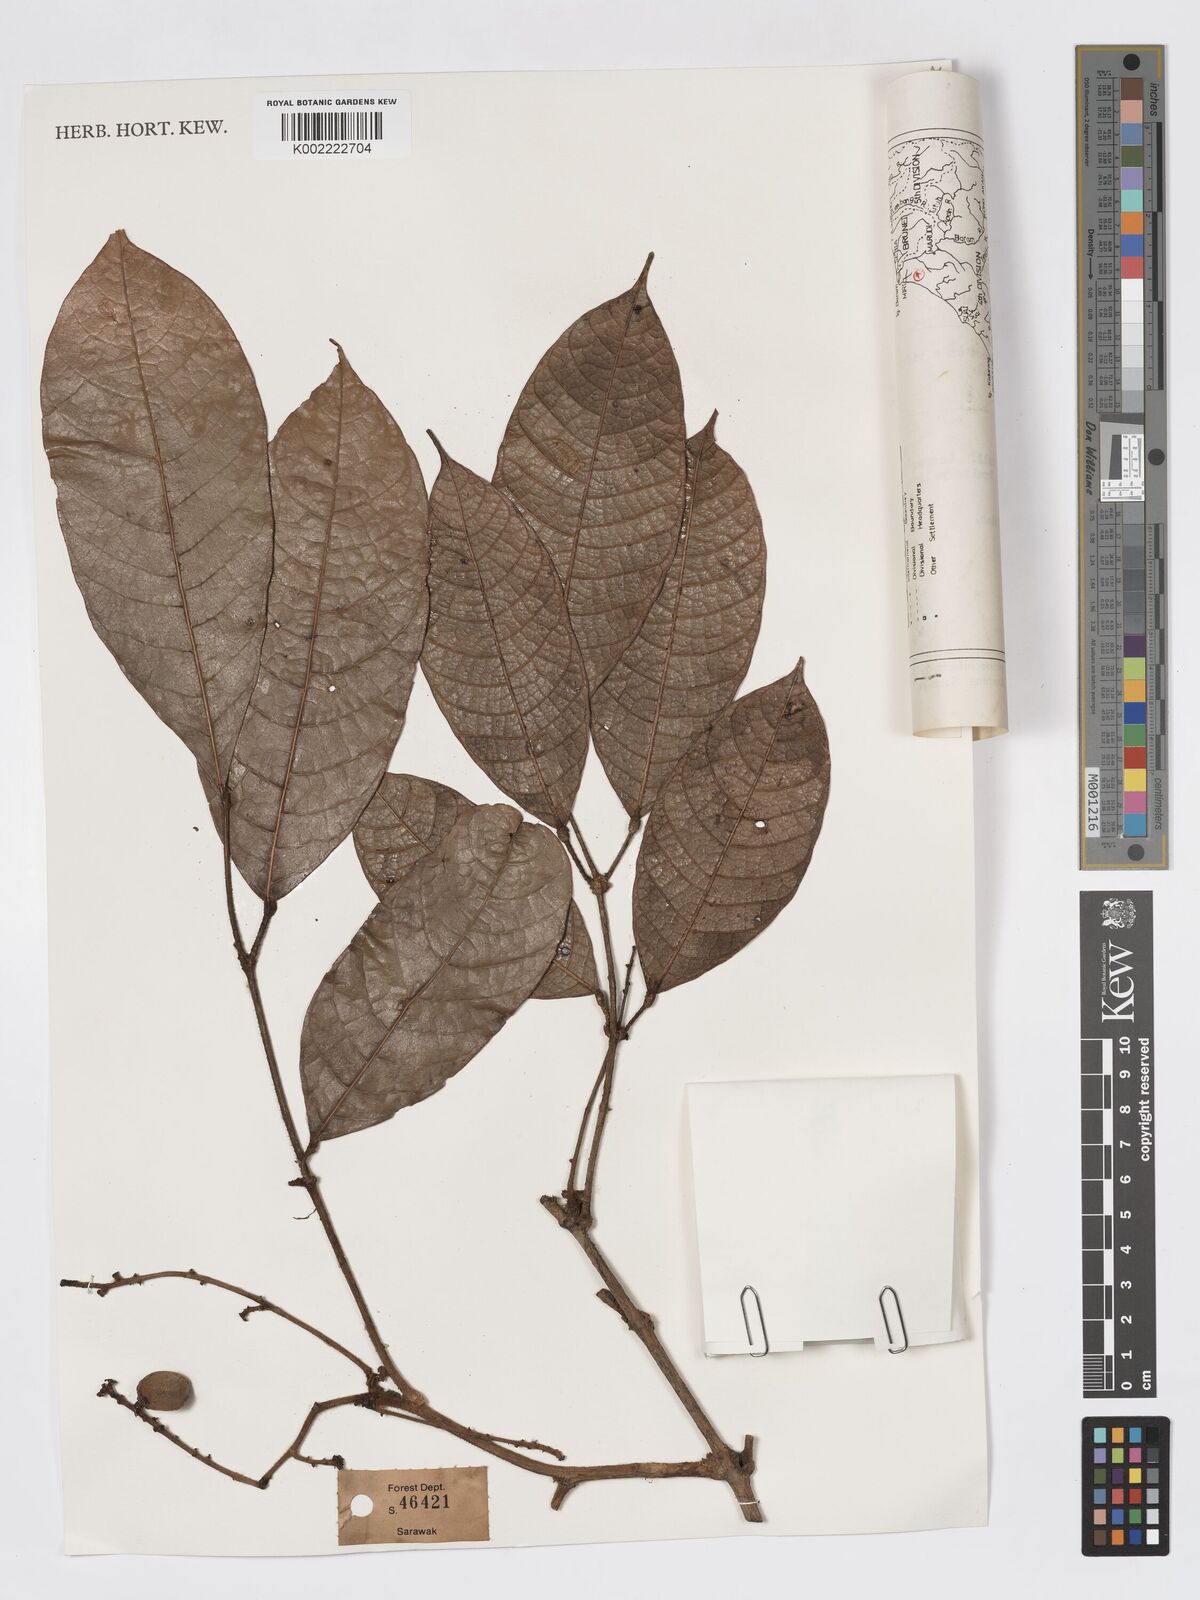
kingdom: Plantae
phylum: Tracheophyta
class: Magnoliopsida
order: Sapindales
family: Burseraceae
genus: Dacryodes
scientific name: Dacryodes rugosa
